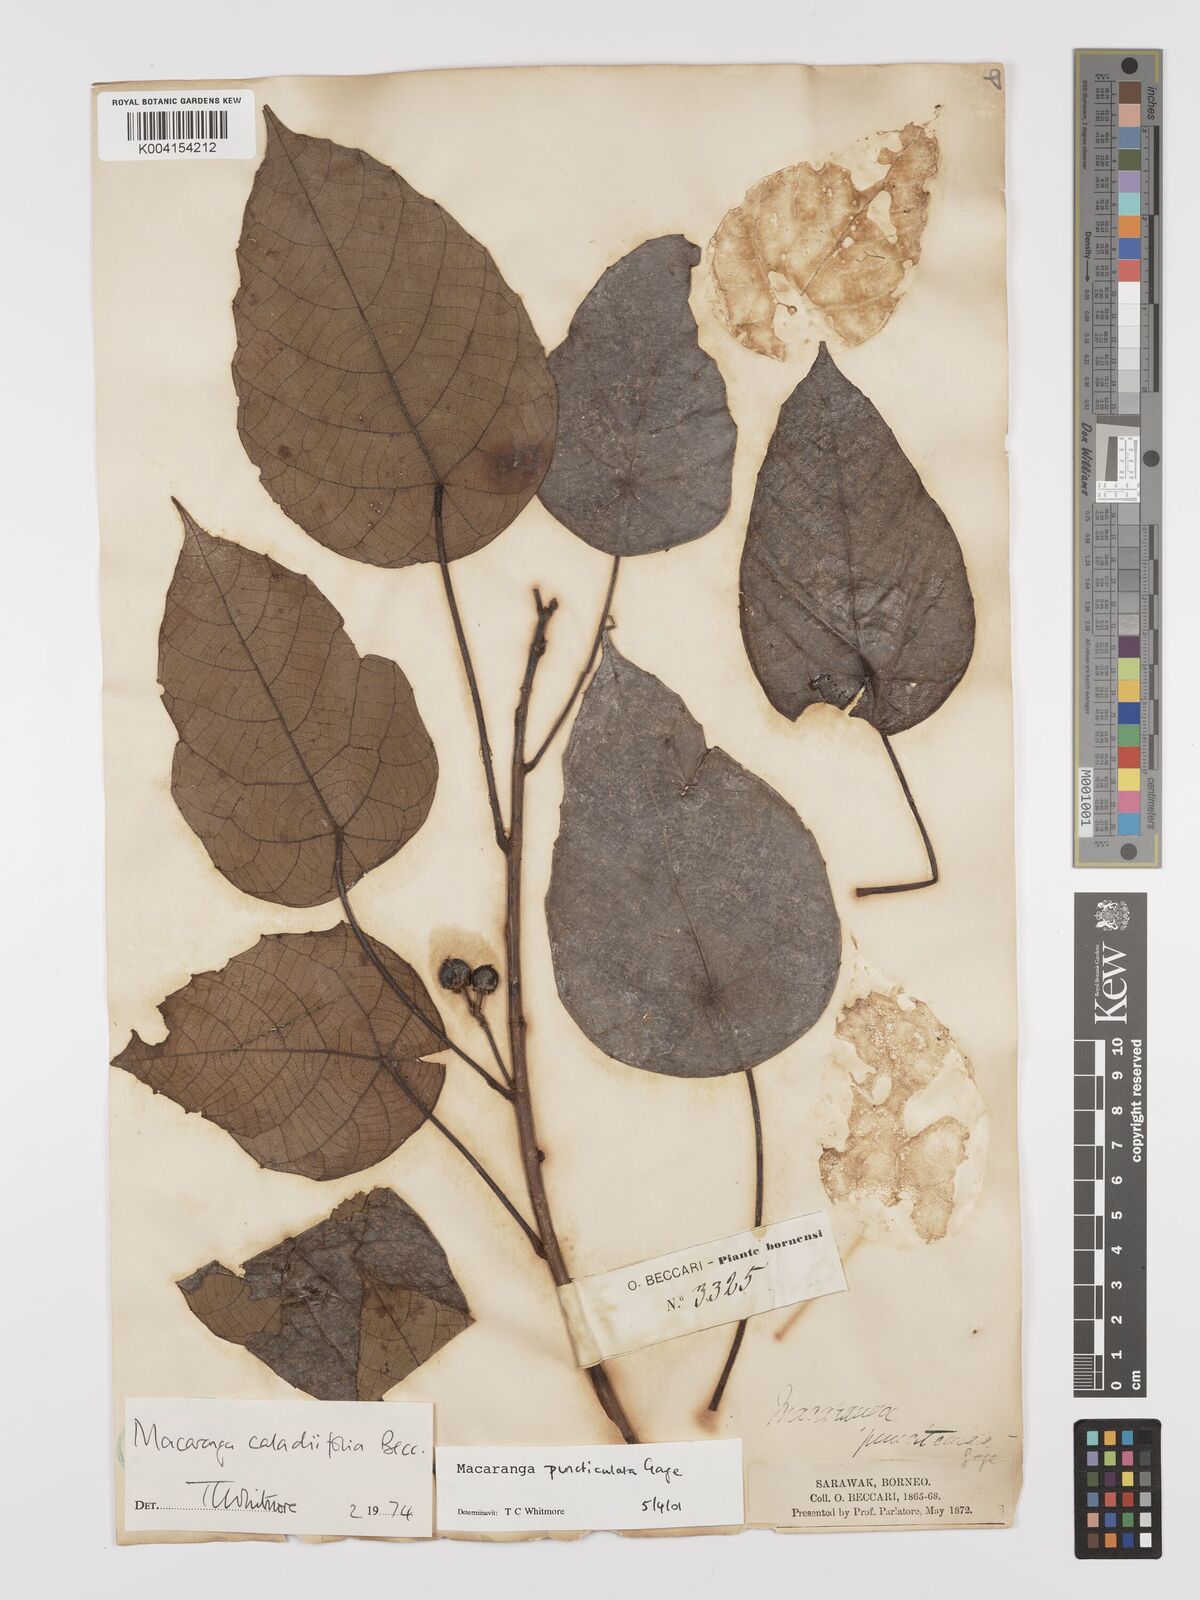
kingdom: Plantae
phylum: Tracheophyta
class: Magnoliopsida
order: Malpighiales
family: Euphorbiaceae
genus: Macaranga
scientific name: Macaranga puncticulata
